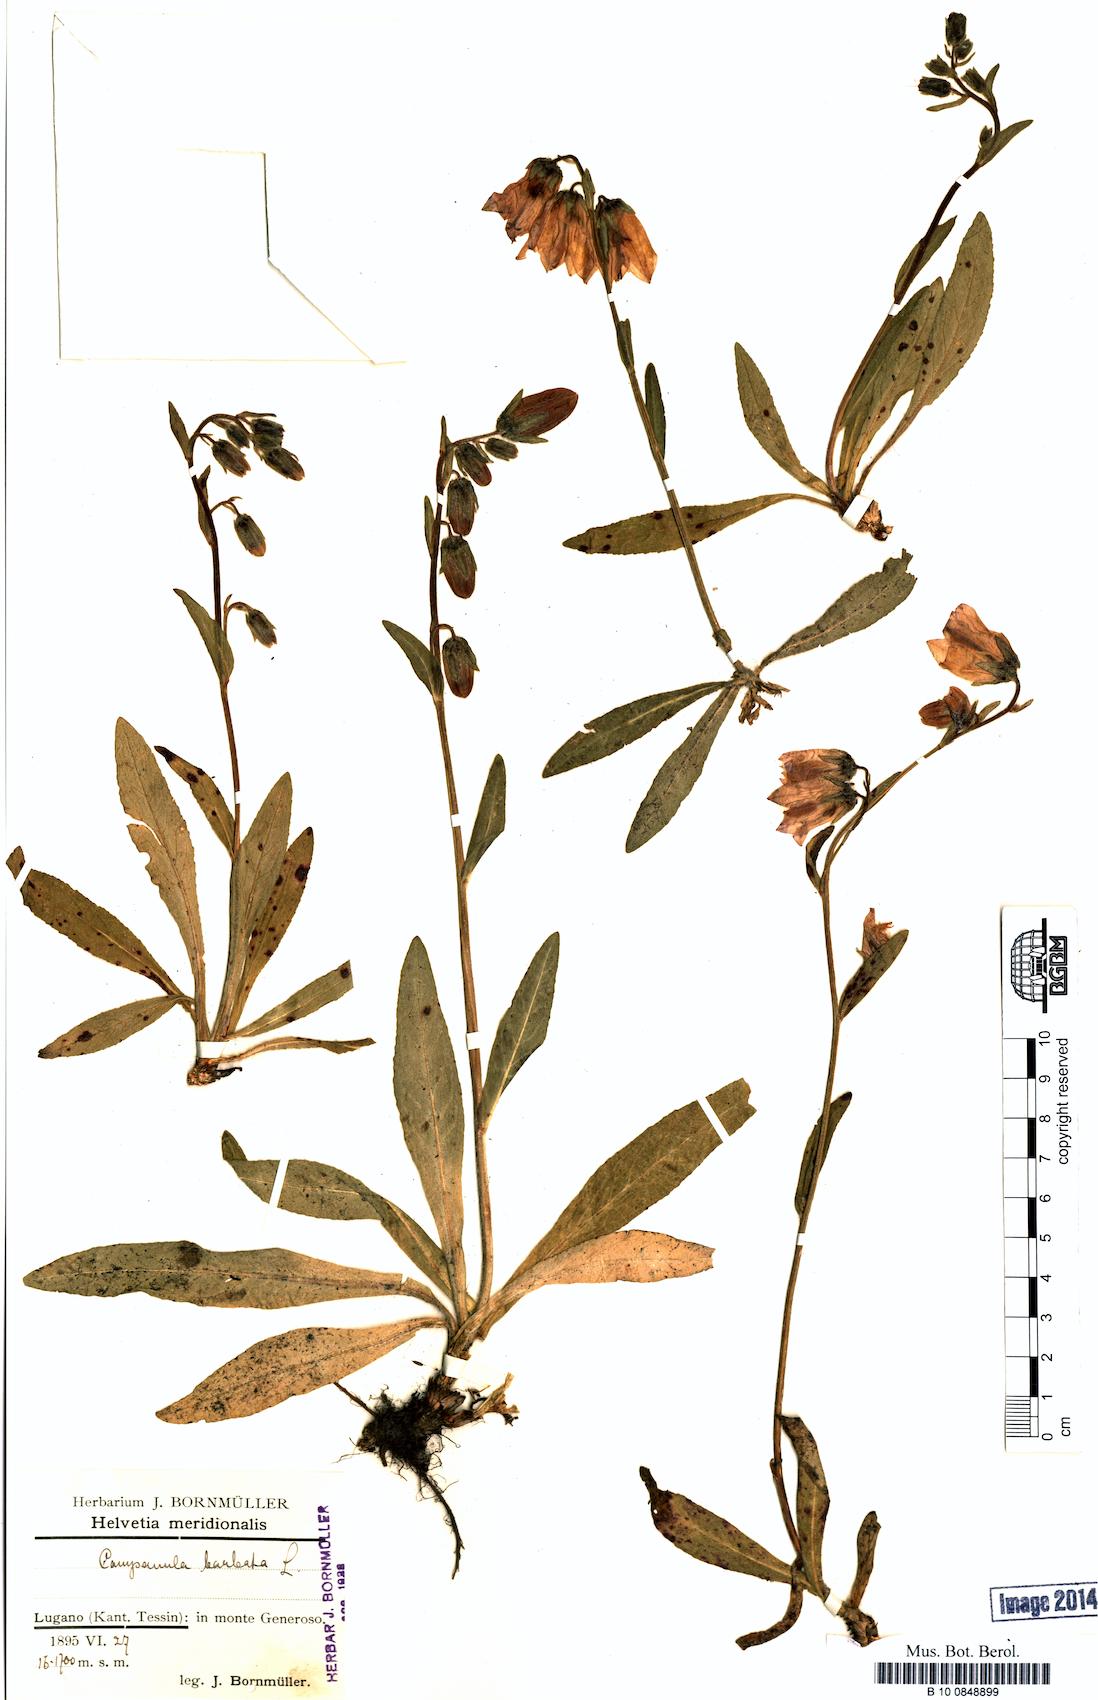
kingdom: Plantae
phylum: Tracheophyta
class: Magnoliopsida
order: Asterales
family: Campanulaceae
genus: Campanula
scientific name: Campanula barbata
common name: Bearded bellflower
